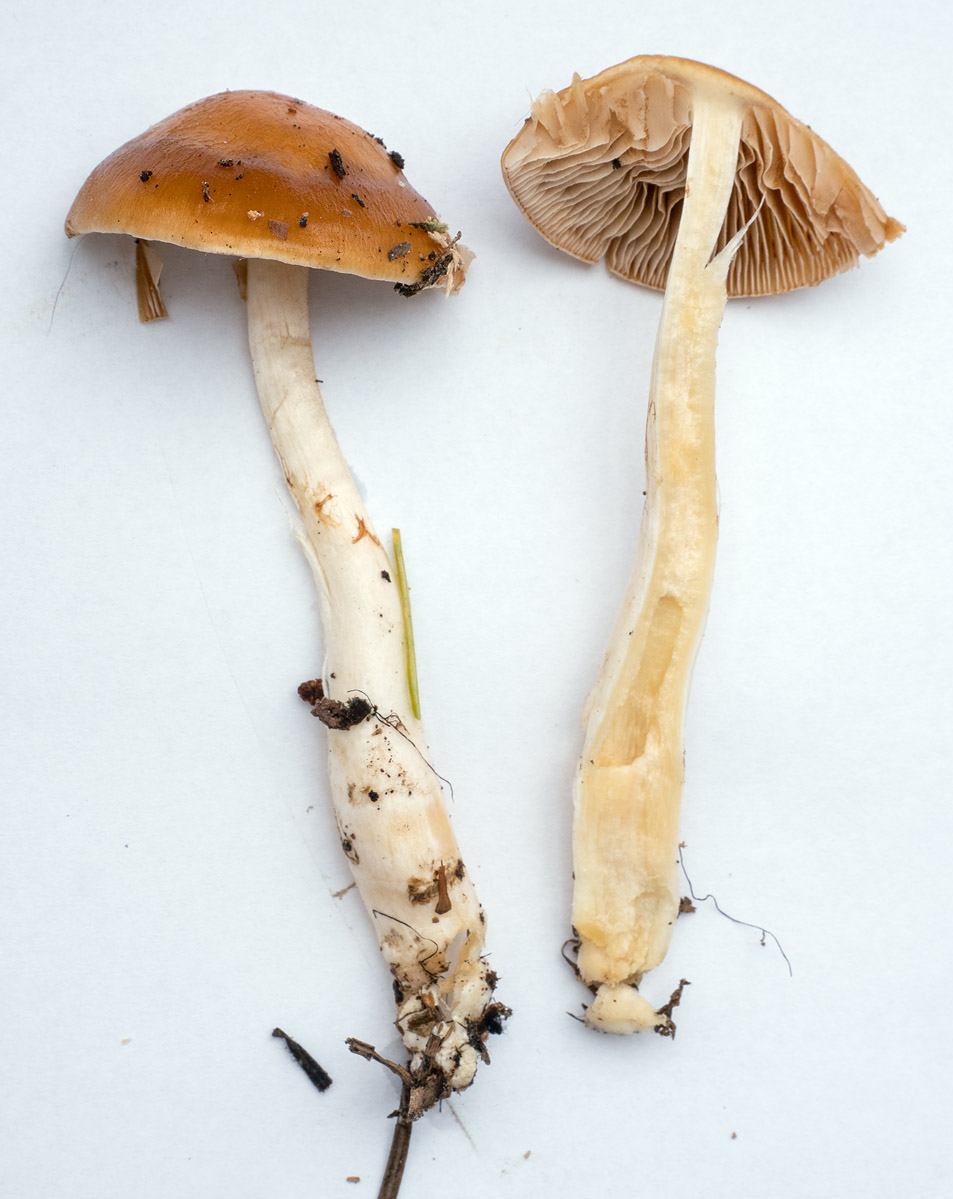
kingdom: Fungi
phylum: Basidiomycota
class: Agaricomycetes
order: Agaricales
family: Cortinariaceae
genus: Thaxterogaster
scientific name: Thaxterogaster causticus
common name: peber-slørhat
